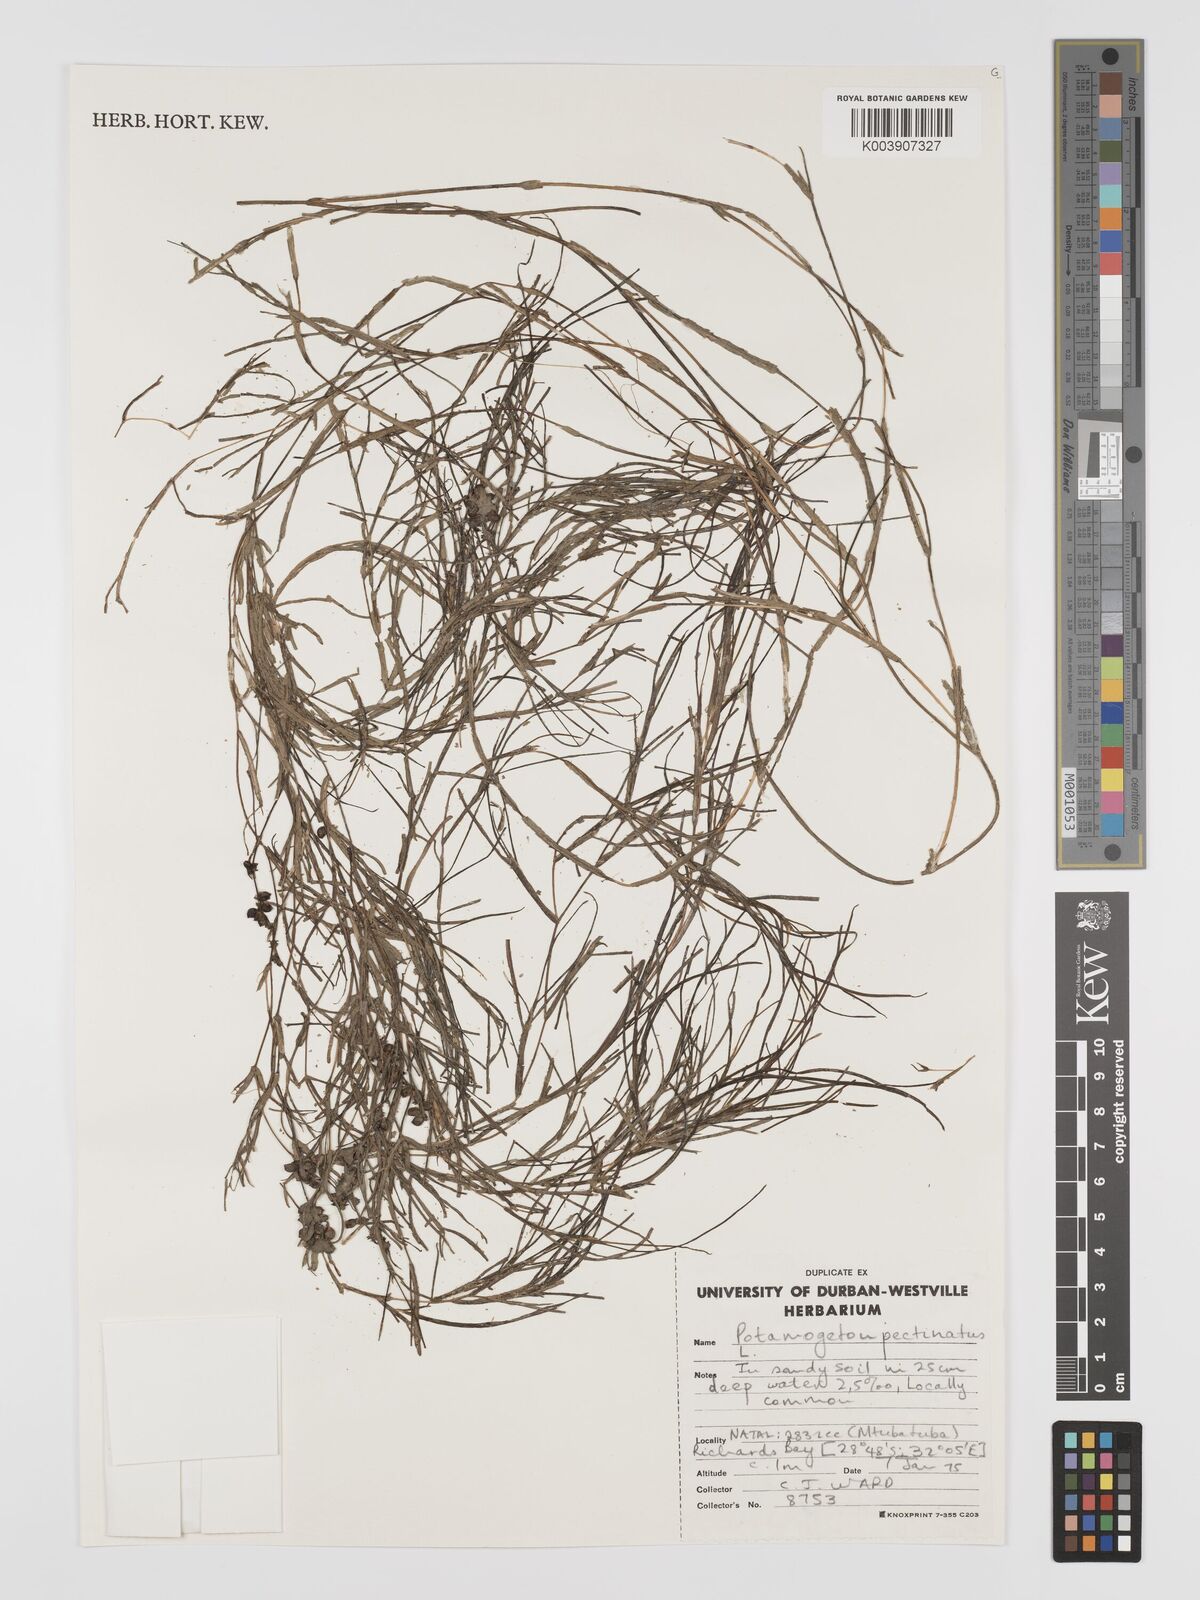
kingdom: Plantae
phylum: Tracheophyta
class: Liliopsida
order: Alismatales
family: Potamogetonaceae
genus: Stuckenia
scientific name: Stuckenia pectinata
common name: Sago pondweed
